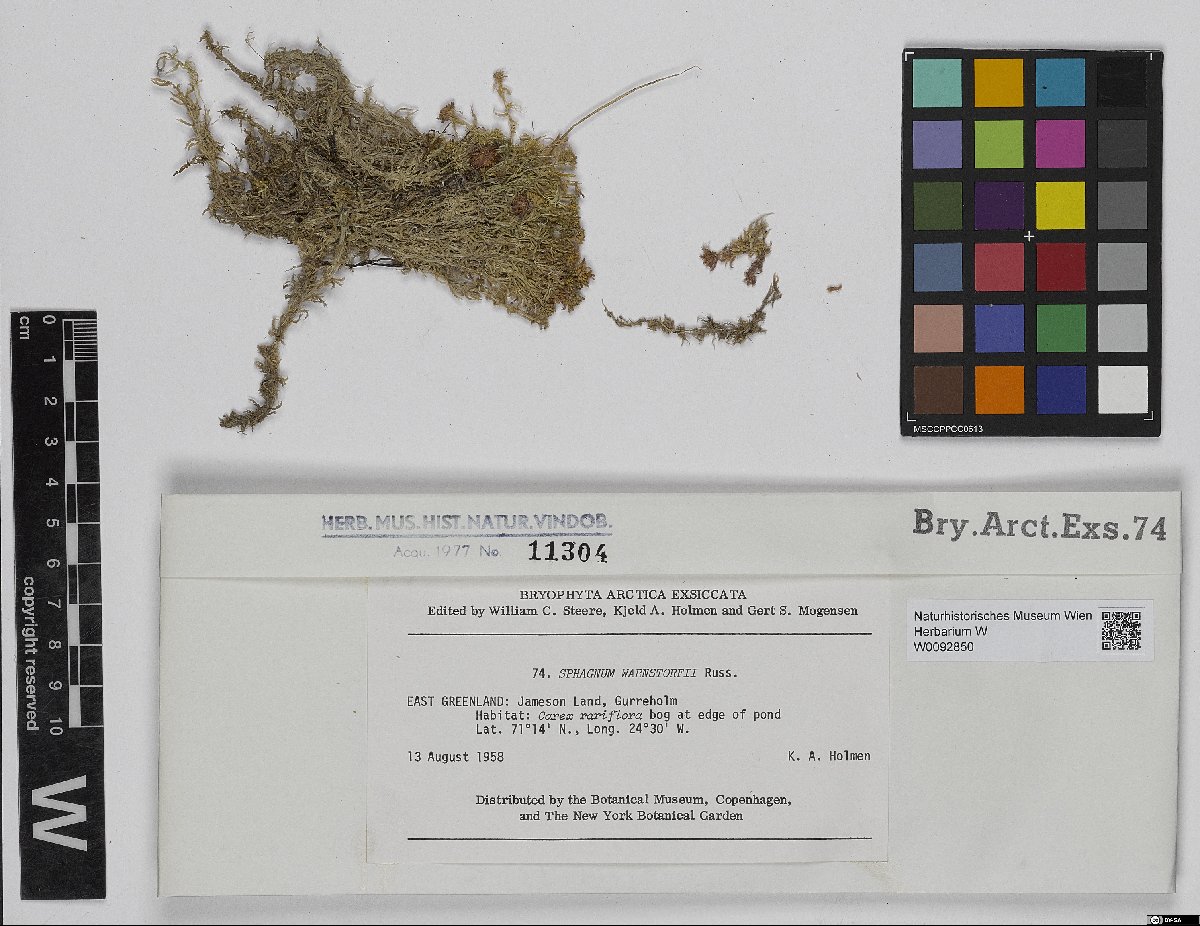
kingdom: Plantae
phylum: Bryophyta
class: Sphagnopsida
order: Sphagnales
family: Sphagnaceae
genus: Sphagnum
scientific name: Sphagnum warnstorfii
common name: Warnstorf's peat moss
